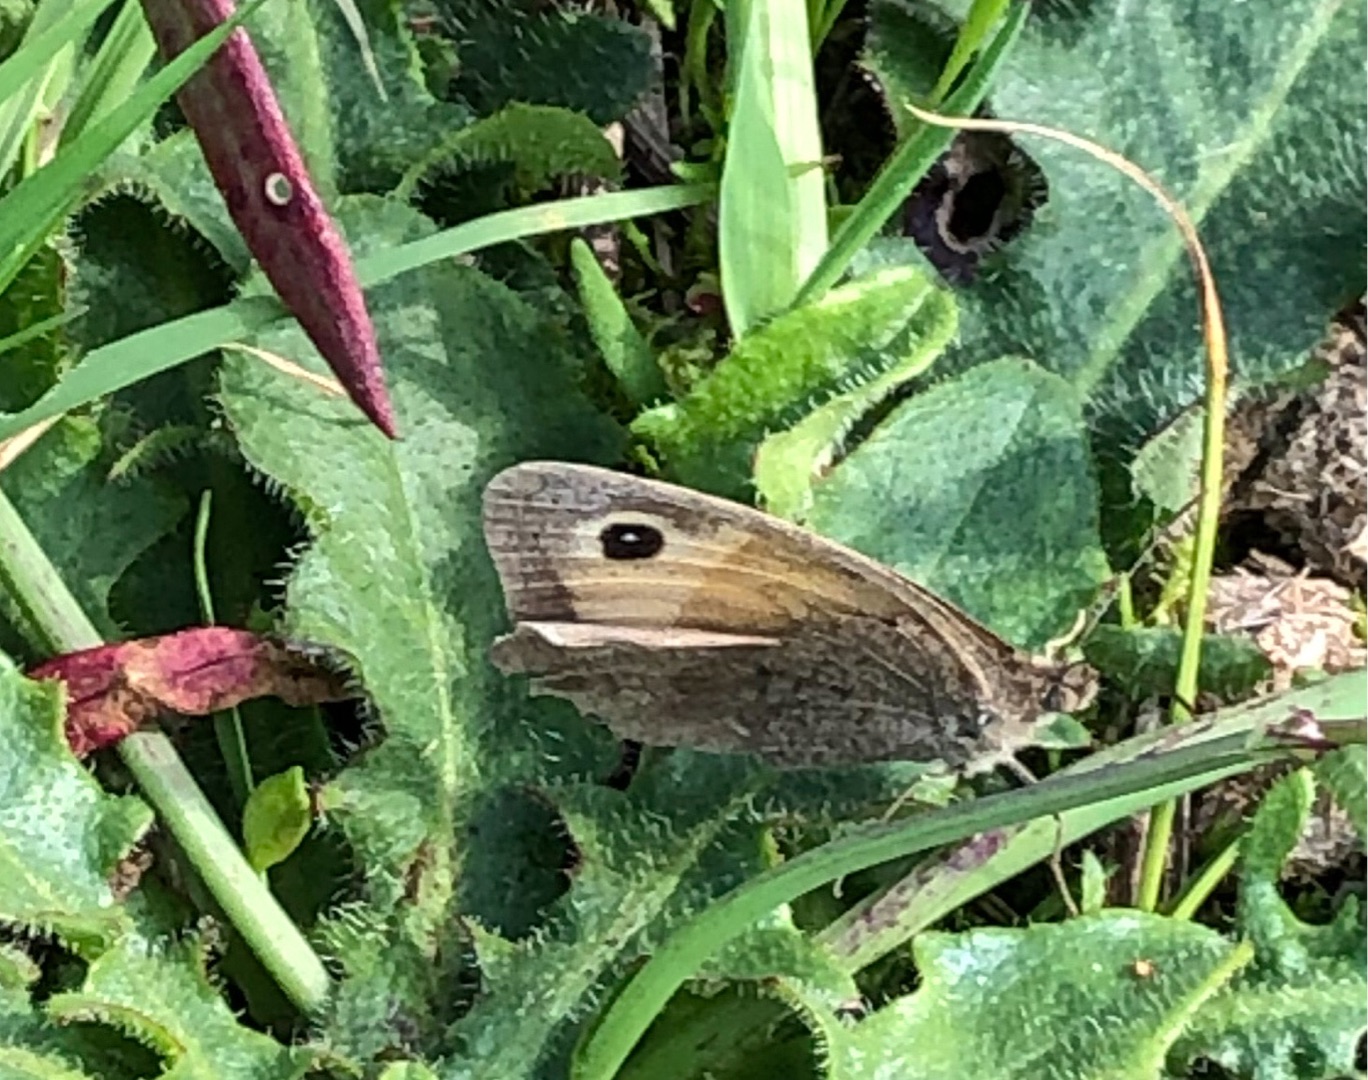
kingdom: Animalia
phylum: Arthropoda
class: Insecta
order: Lepidoptera
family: Nymphalidae
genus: Maniola
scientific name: Maniola jurtina
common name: Græsrandøje
